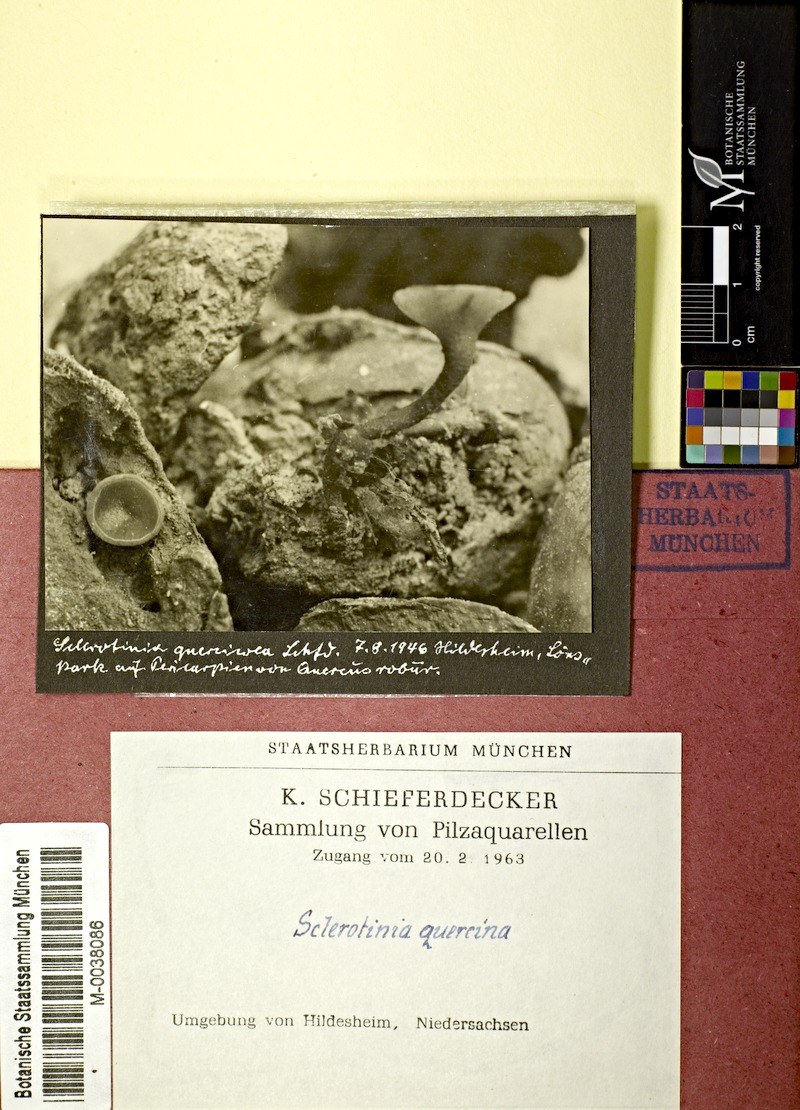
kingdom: Fungi
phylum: Ascomycota
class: Leotiomycetes
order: Helotiales
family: Sclerotiniaceae
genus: Sclerotinia
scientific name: Sclerotinia
